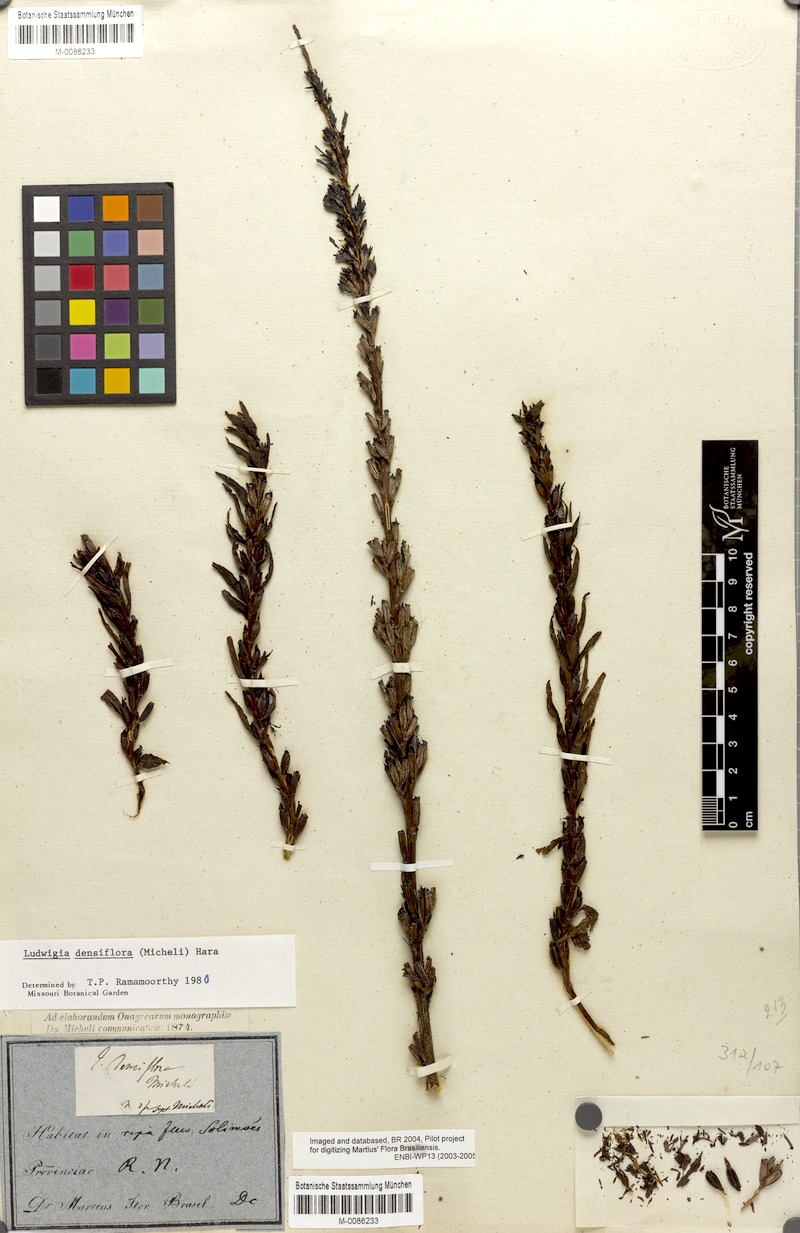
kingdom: Plantae
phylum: Tracheophyta
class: Magnoliopsida
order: Myrtales
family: Onagraceae
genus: Ludwigia
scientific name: Ludwigia densiflora
